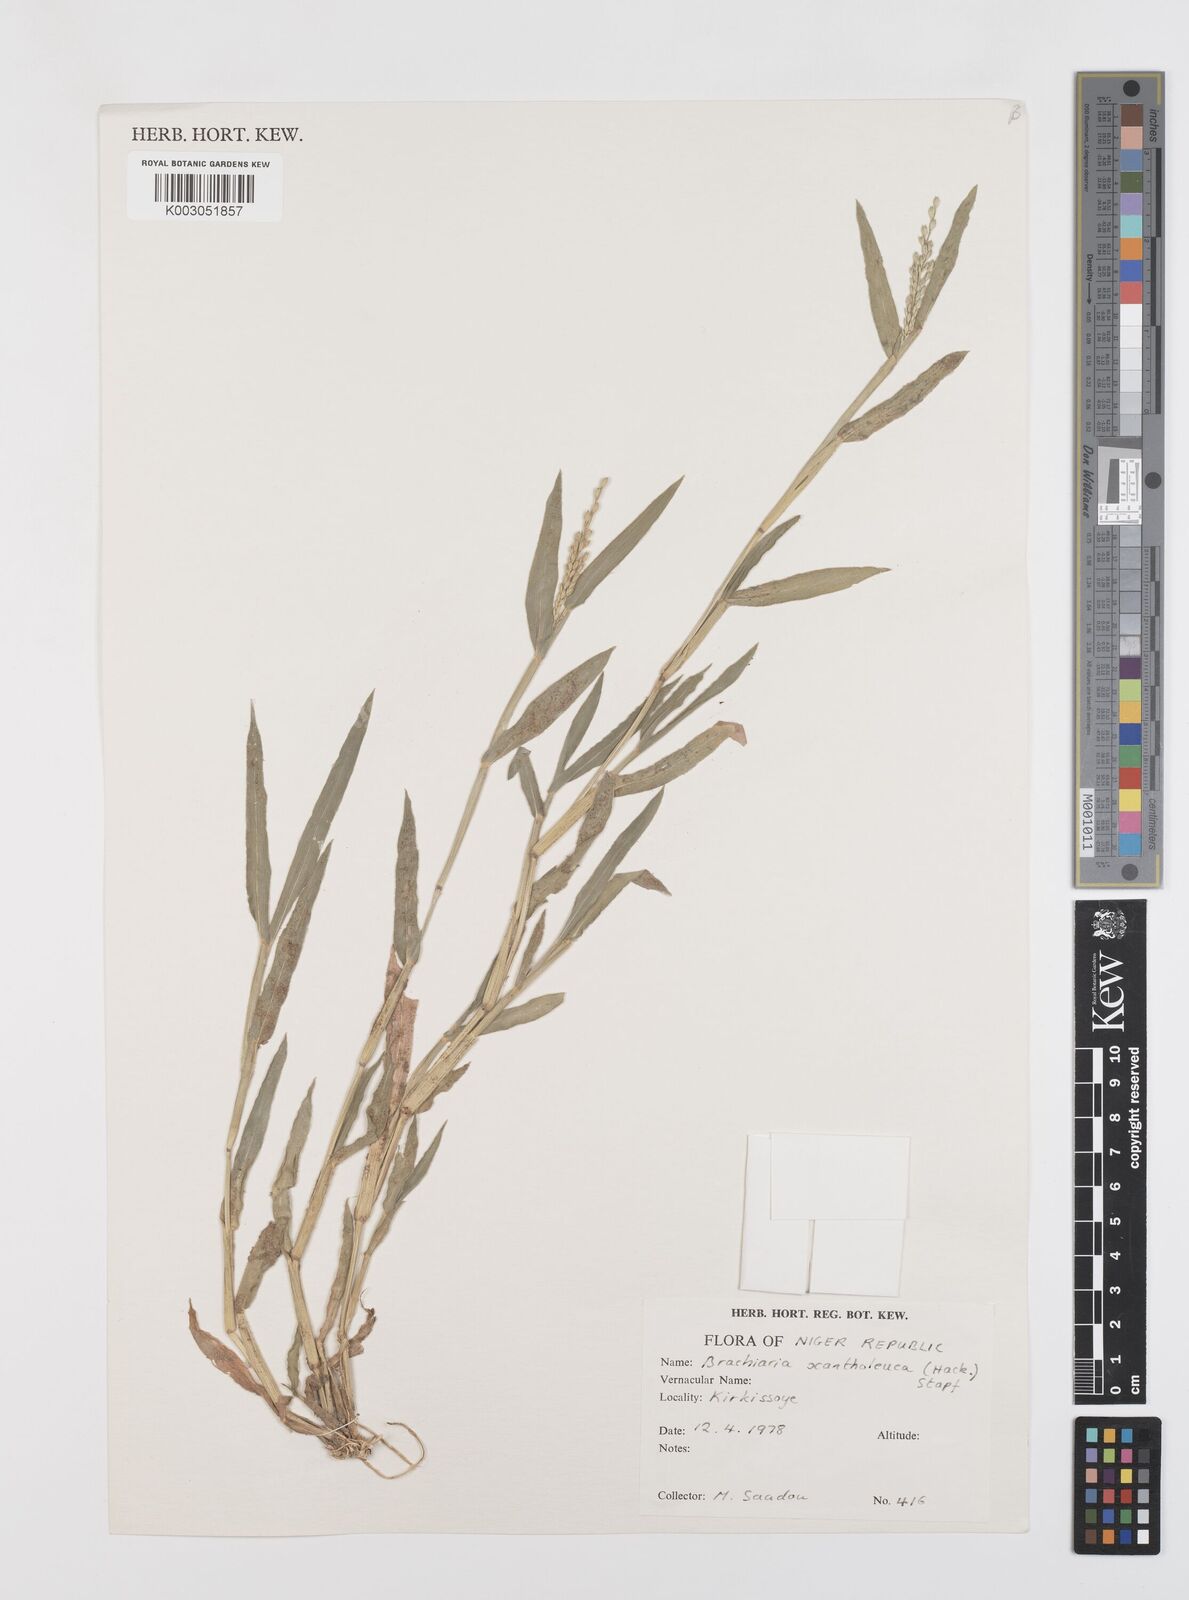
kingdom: Plantae
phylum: Tracheophyta
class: Liliopsida
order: Poales
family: Poaceae
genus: Urochloa
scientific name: Urochloa xantholeuca
